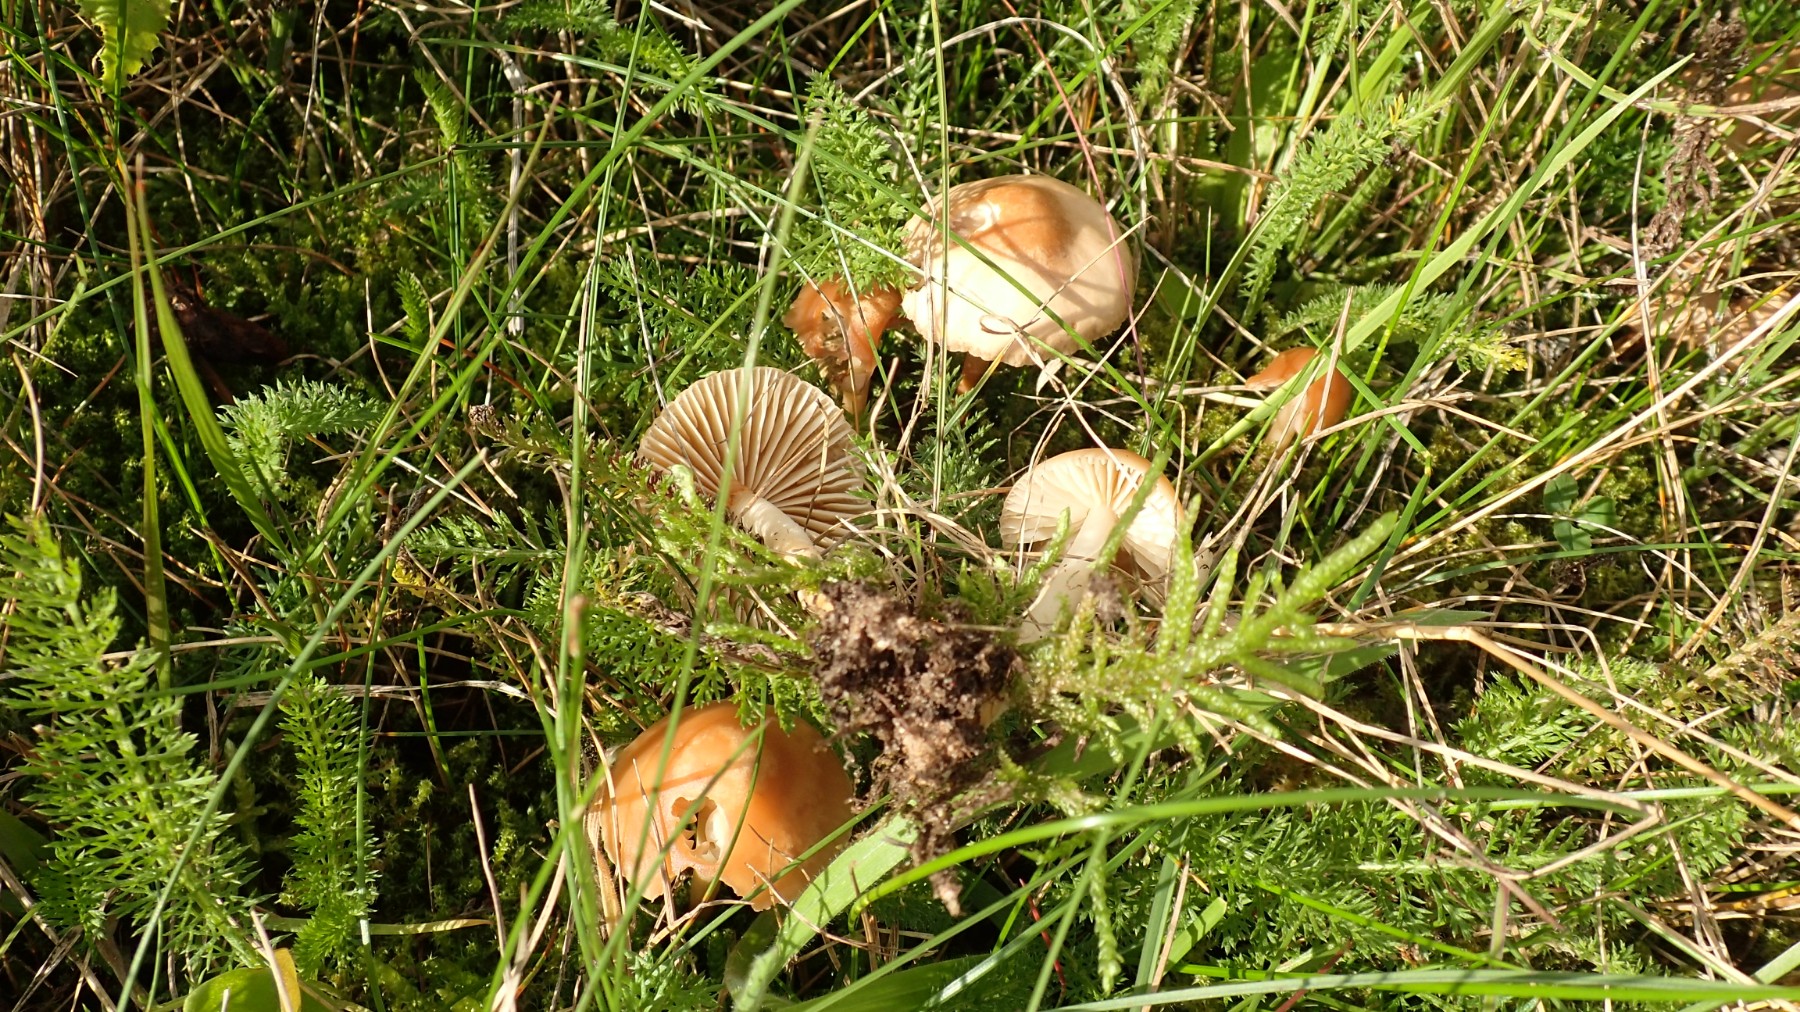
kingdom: Fungi
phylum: Basidiomycota
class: Agaricomycetes
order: Agaricales
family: Marasmiaceae
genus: Marasmius
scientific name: Marasmius oreades
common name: elledans-bruskhat
